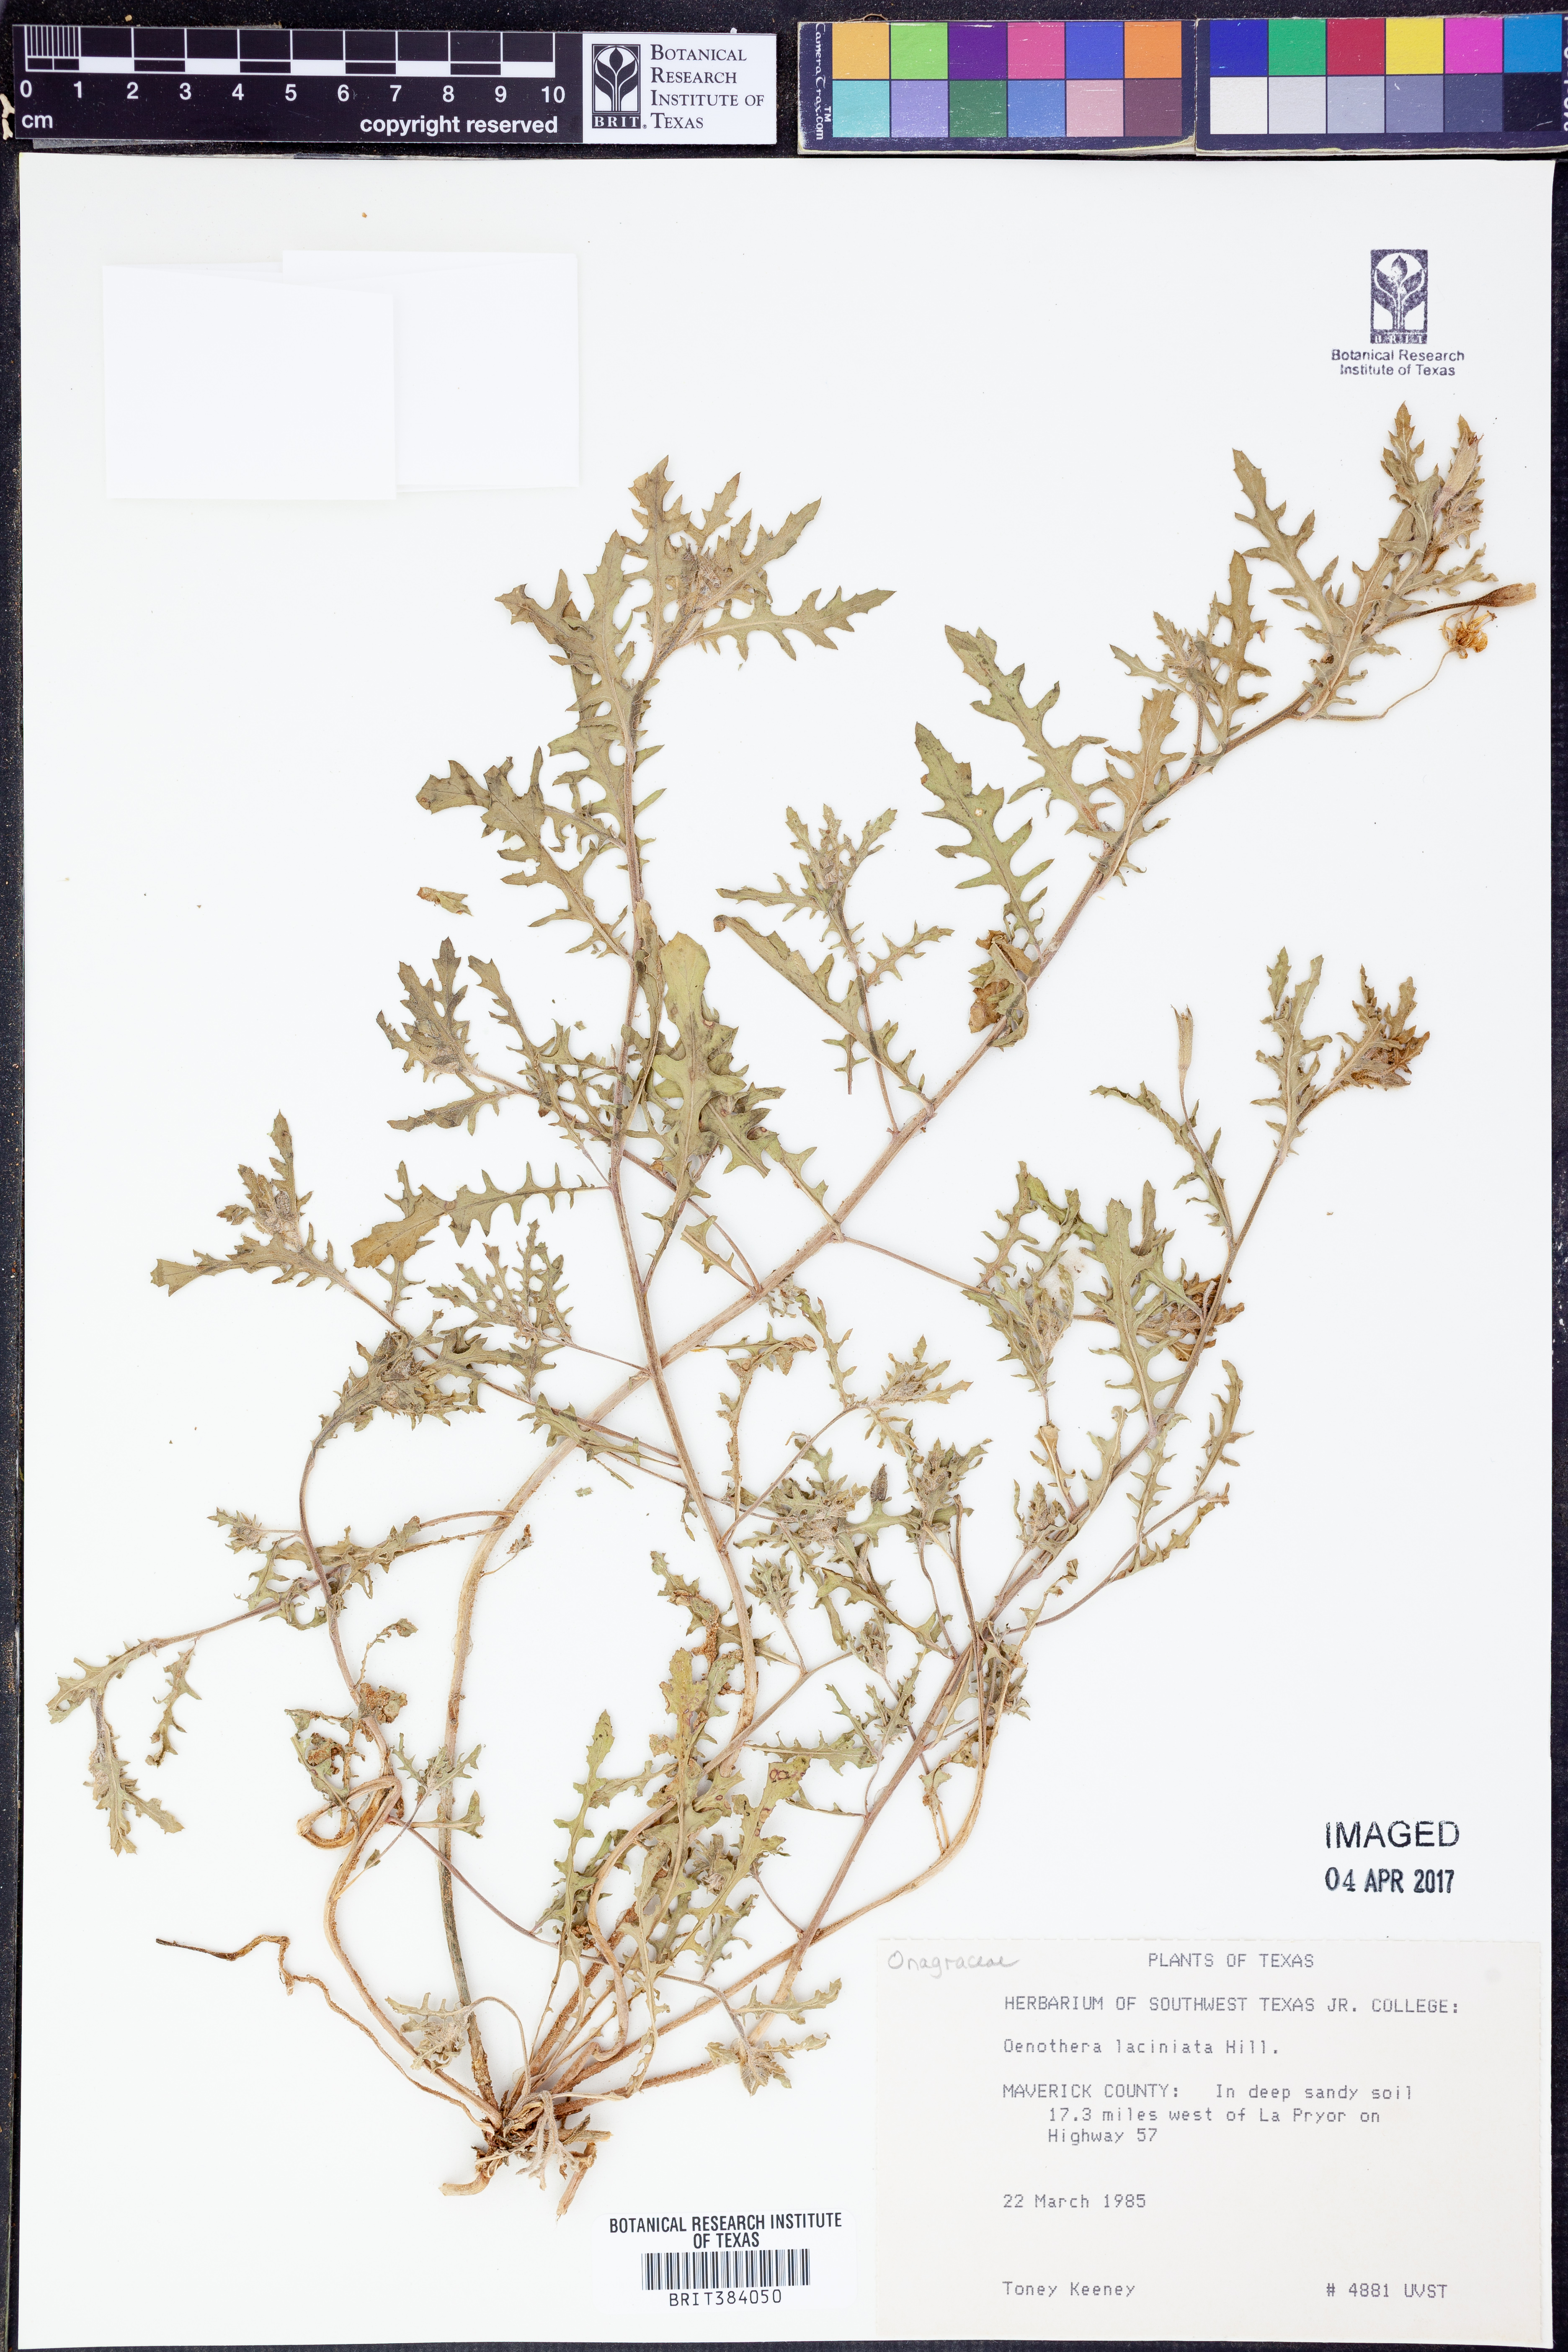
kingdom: Plantae
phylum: Tracheophyta
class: Magnoliopsida
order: Myrtales
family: Onagraceae
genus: Oenothera
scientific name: Oenothera laciniata
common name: Cut-leaved evening-primrose
